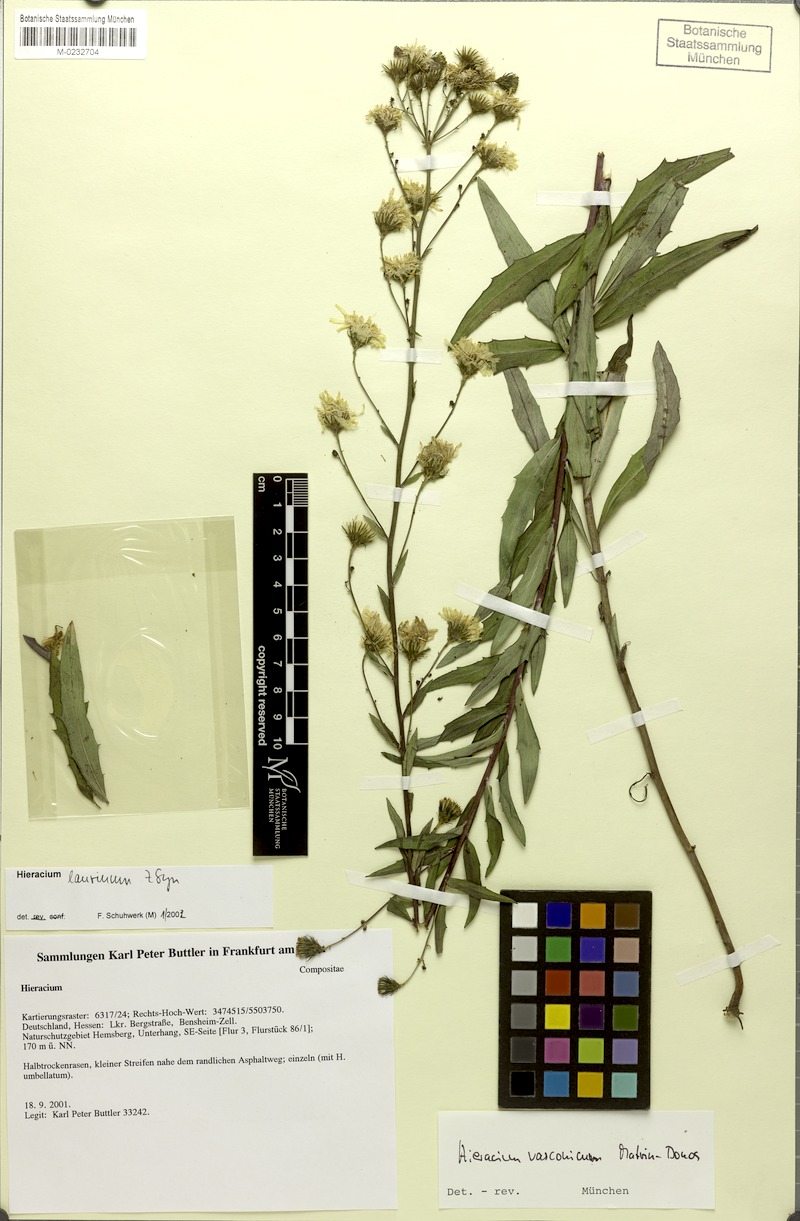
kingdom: Plantae
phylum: Tracheophyta
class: Magnoliopsida
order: Asterales
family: Asteraceae
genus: Hieracium
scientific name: Hieracium vasconicum
